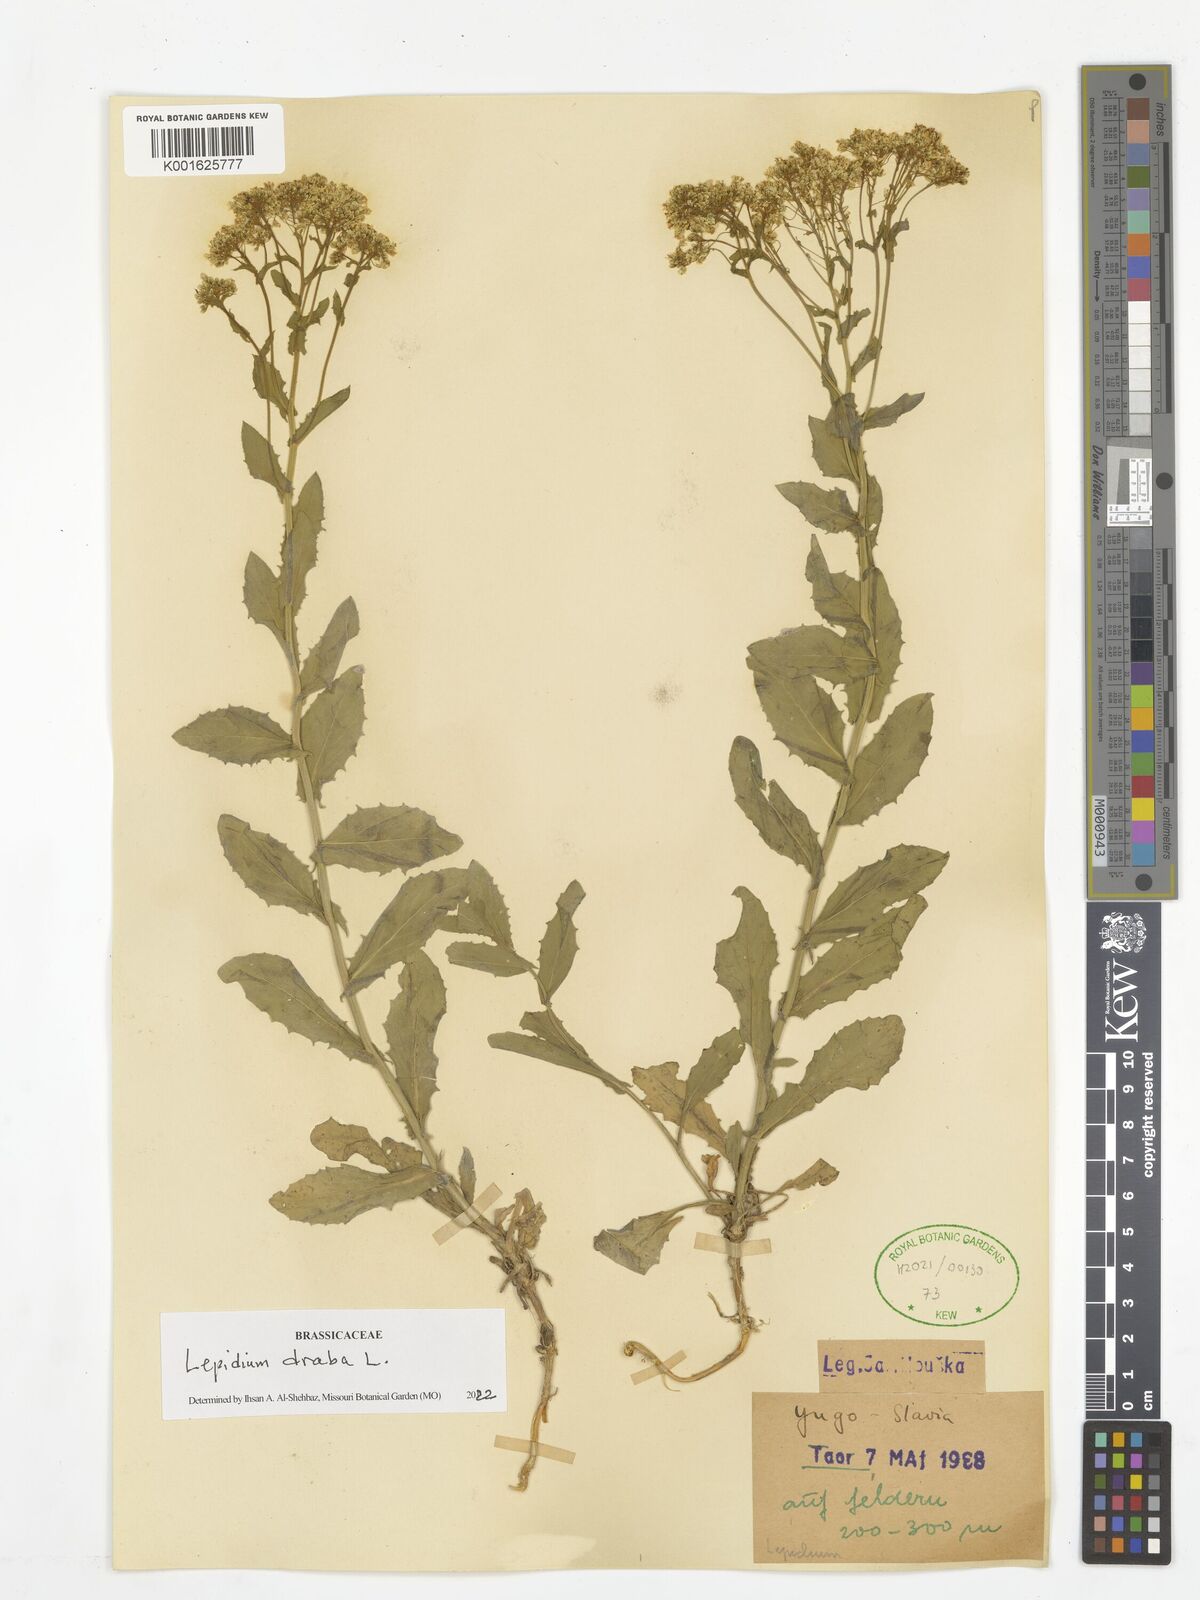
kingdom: Plantae
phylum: Tracheophyta
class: Magnoliopsida
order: Brassicales
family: Brassicaceae
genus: Lepidium
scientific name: Lepidium draba
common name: Hoary cress
